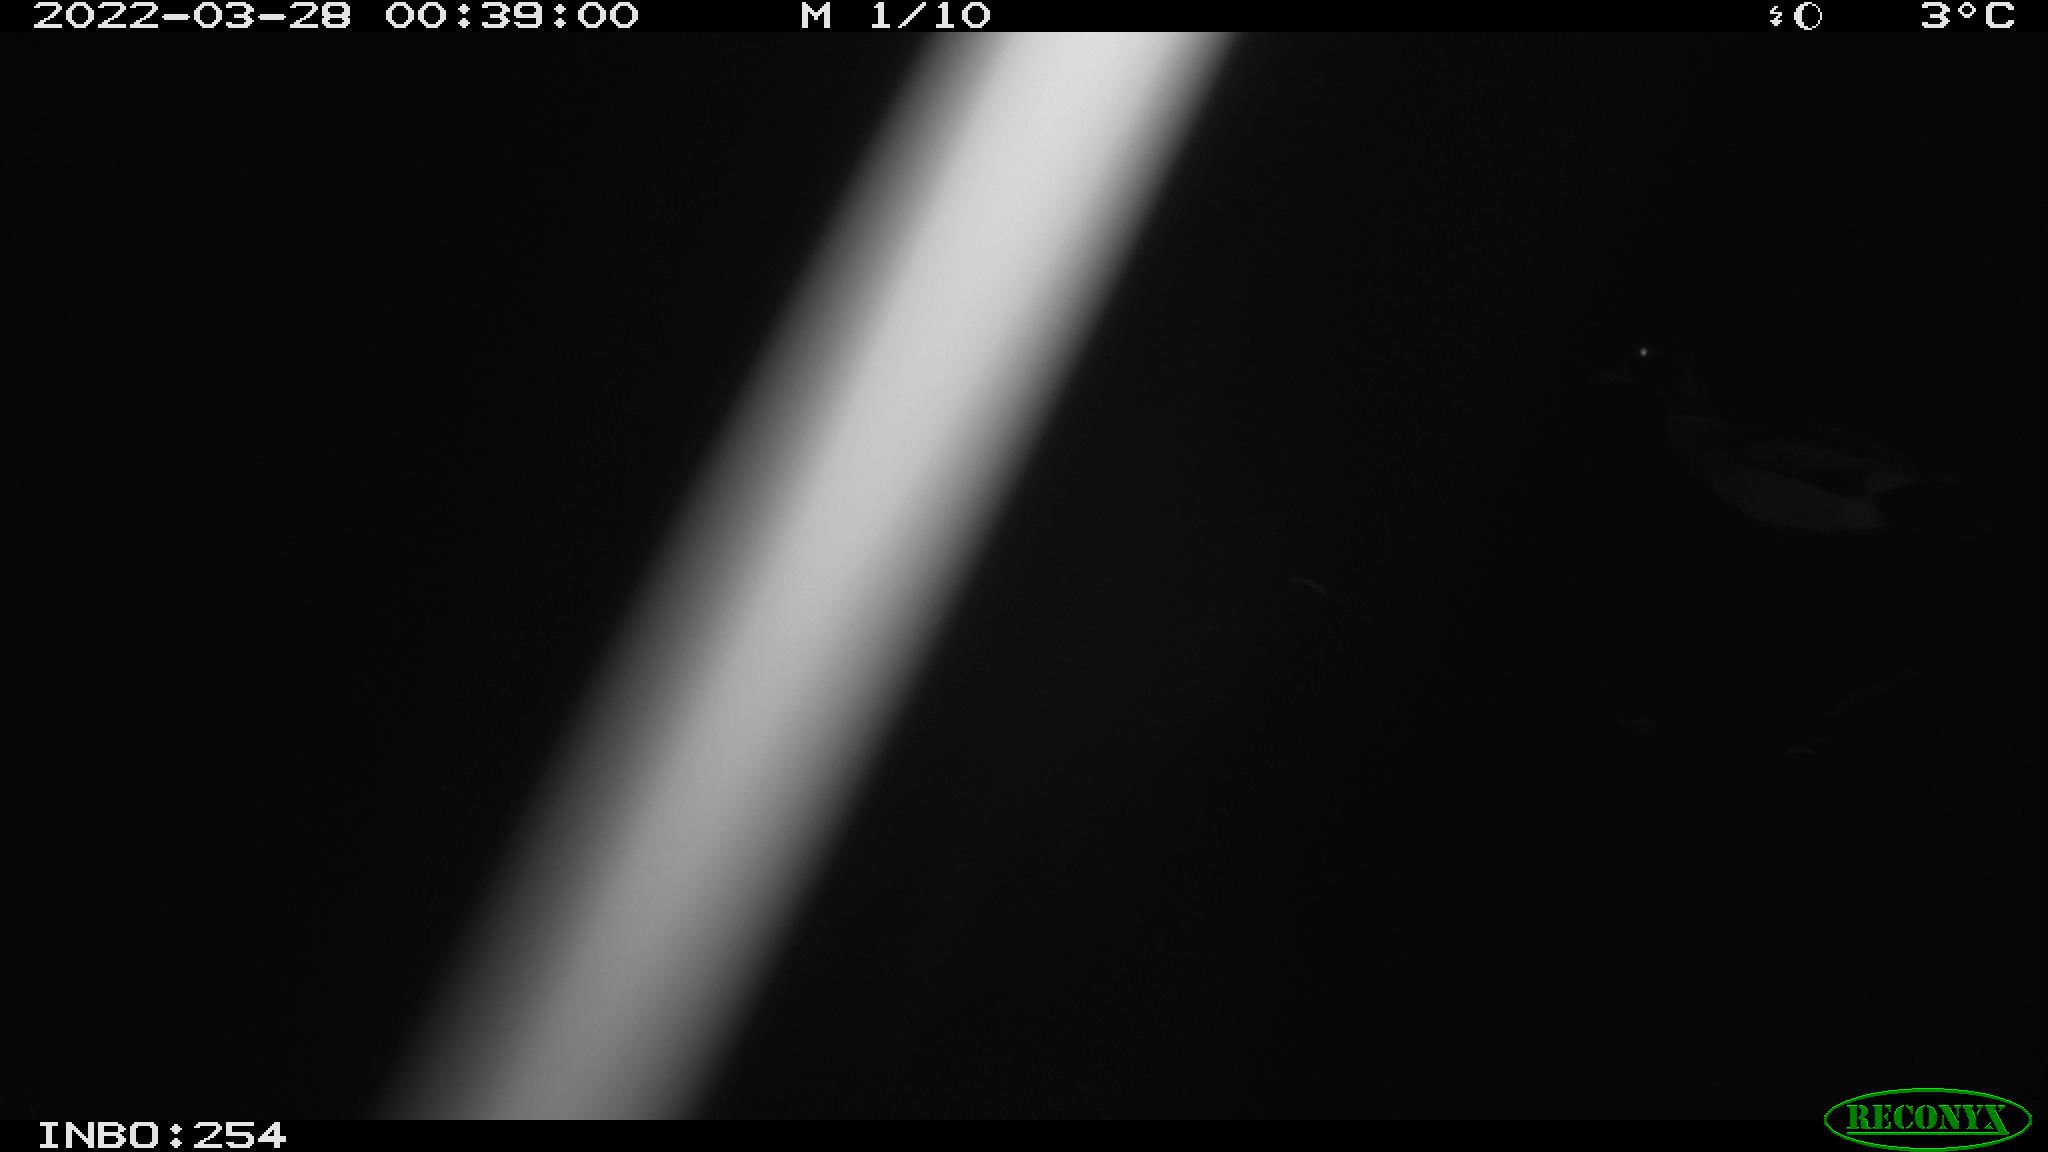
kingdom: Animalia
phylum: Chordata
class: Aves
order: Anseriformes
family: Anatidae
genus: Anas
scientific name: Anas platyrhynchos
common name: Mallard
